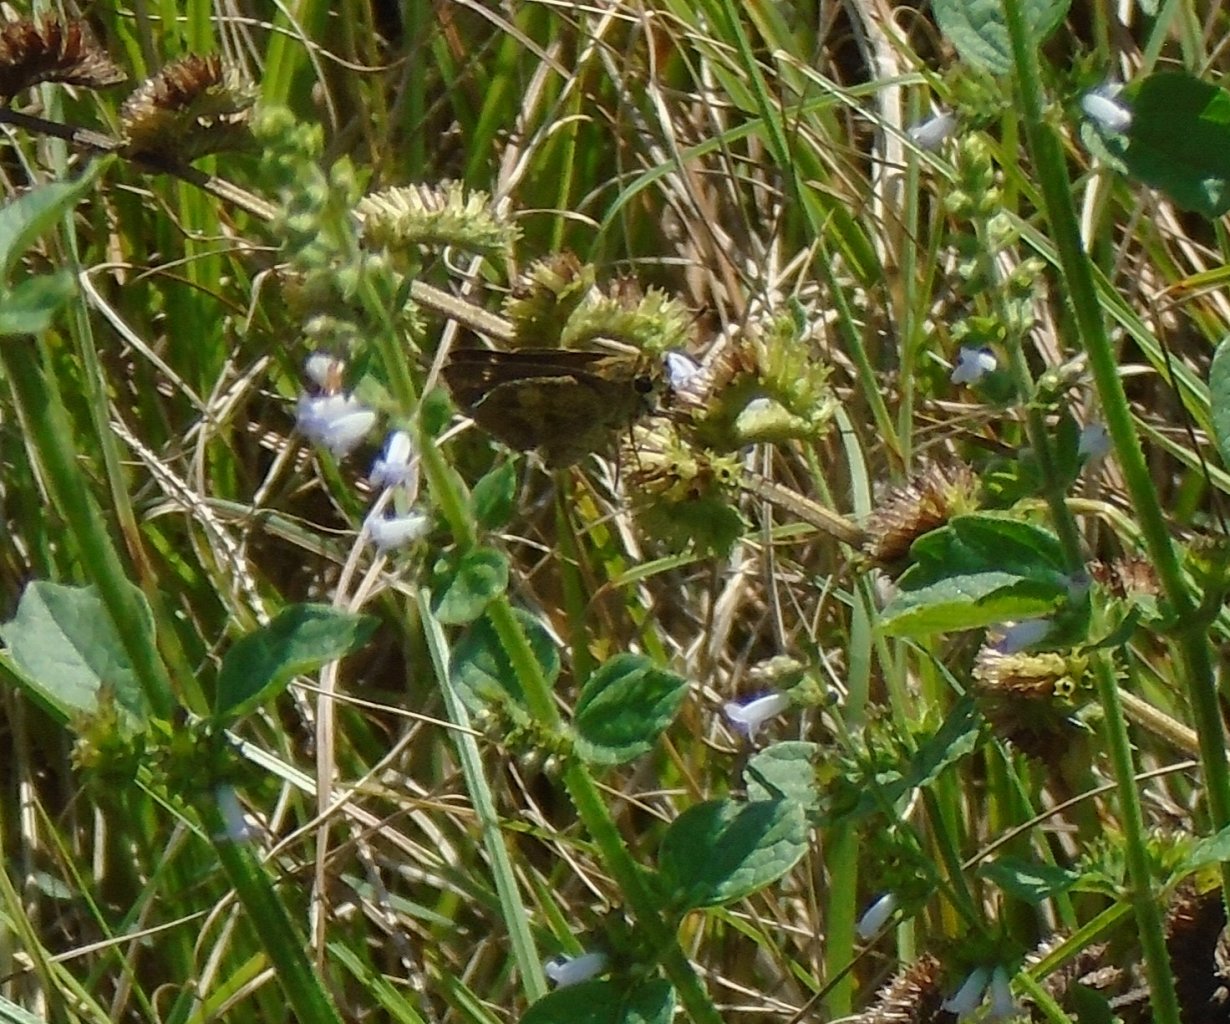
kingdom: Animalia
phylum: Arthropoda
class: Insecta
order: Lepidoptera
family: Hesperiidae
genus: Polites
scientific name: Polites vibex
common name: Whirlabout
